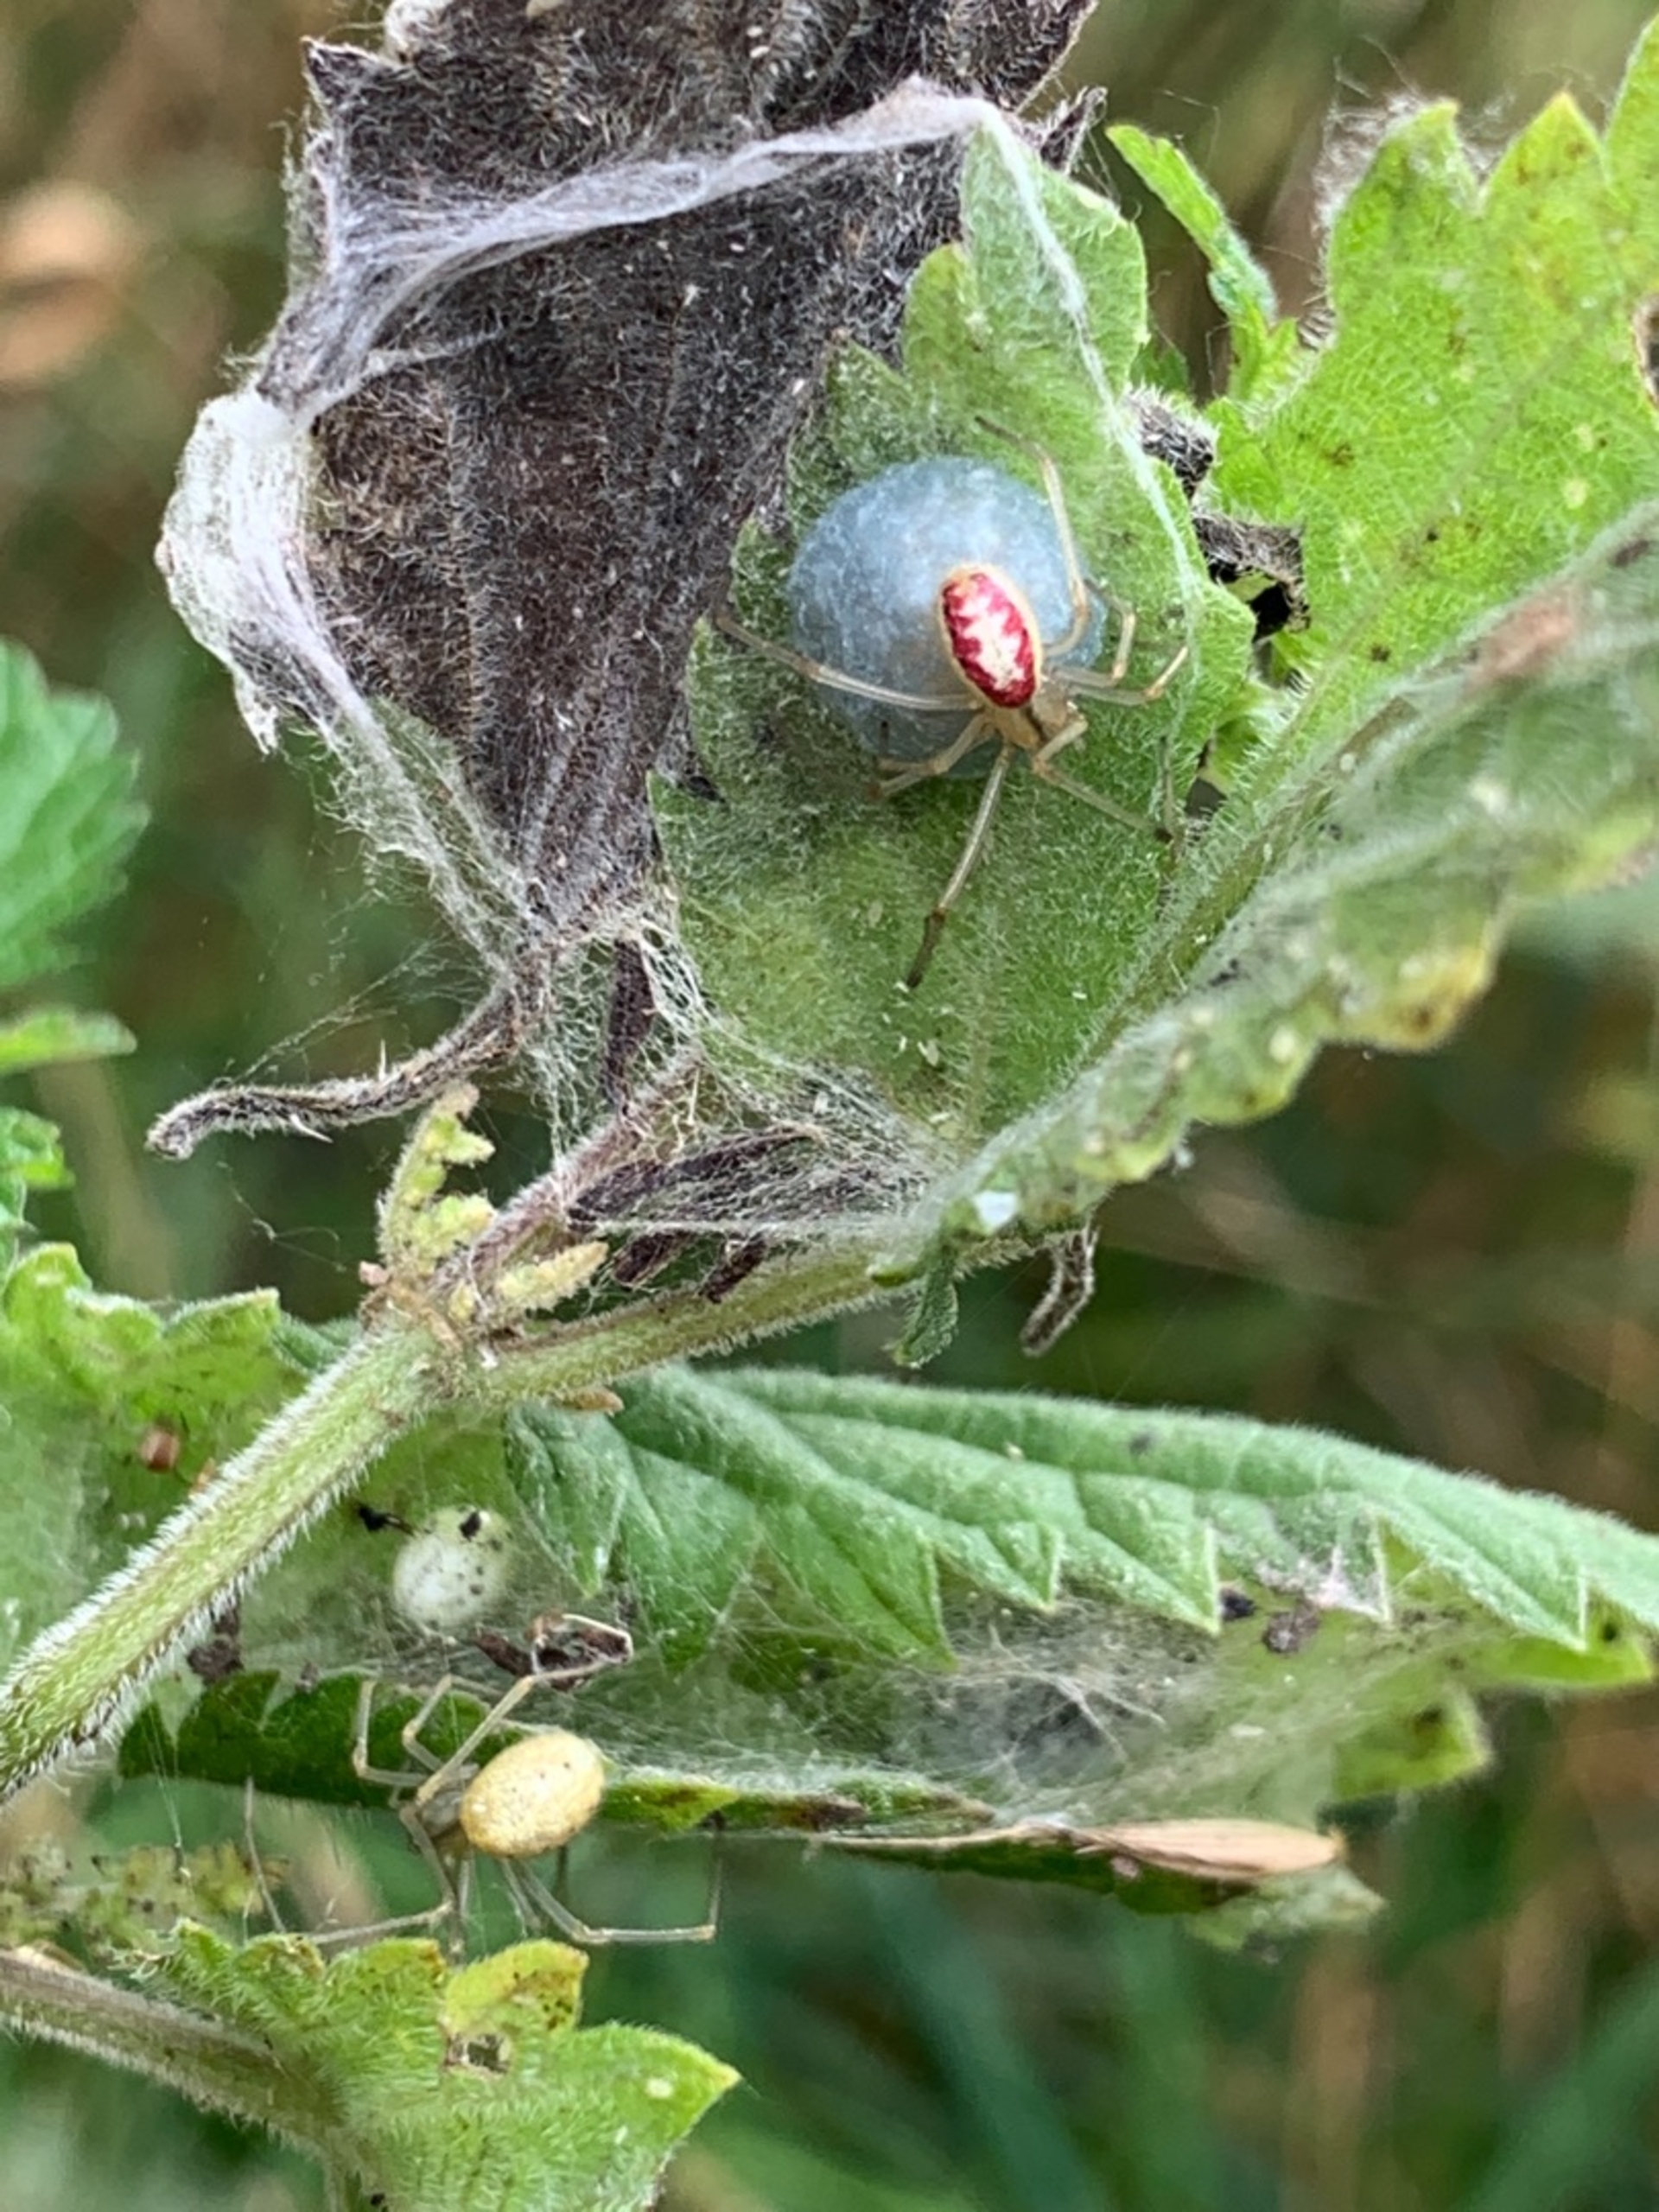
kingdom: Animalia
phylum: Arthropoda
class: Arachnida
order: Araneae
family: Theridiidae
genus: Enoplognatha
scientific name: Enoplognatha
